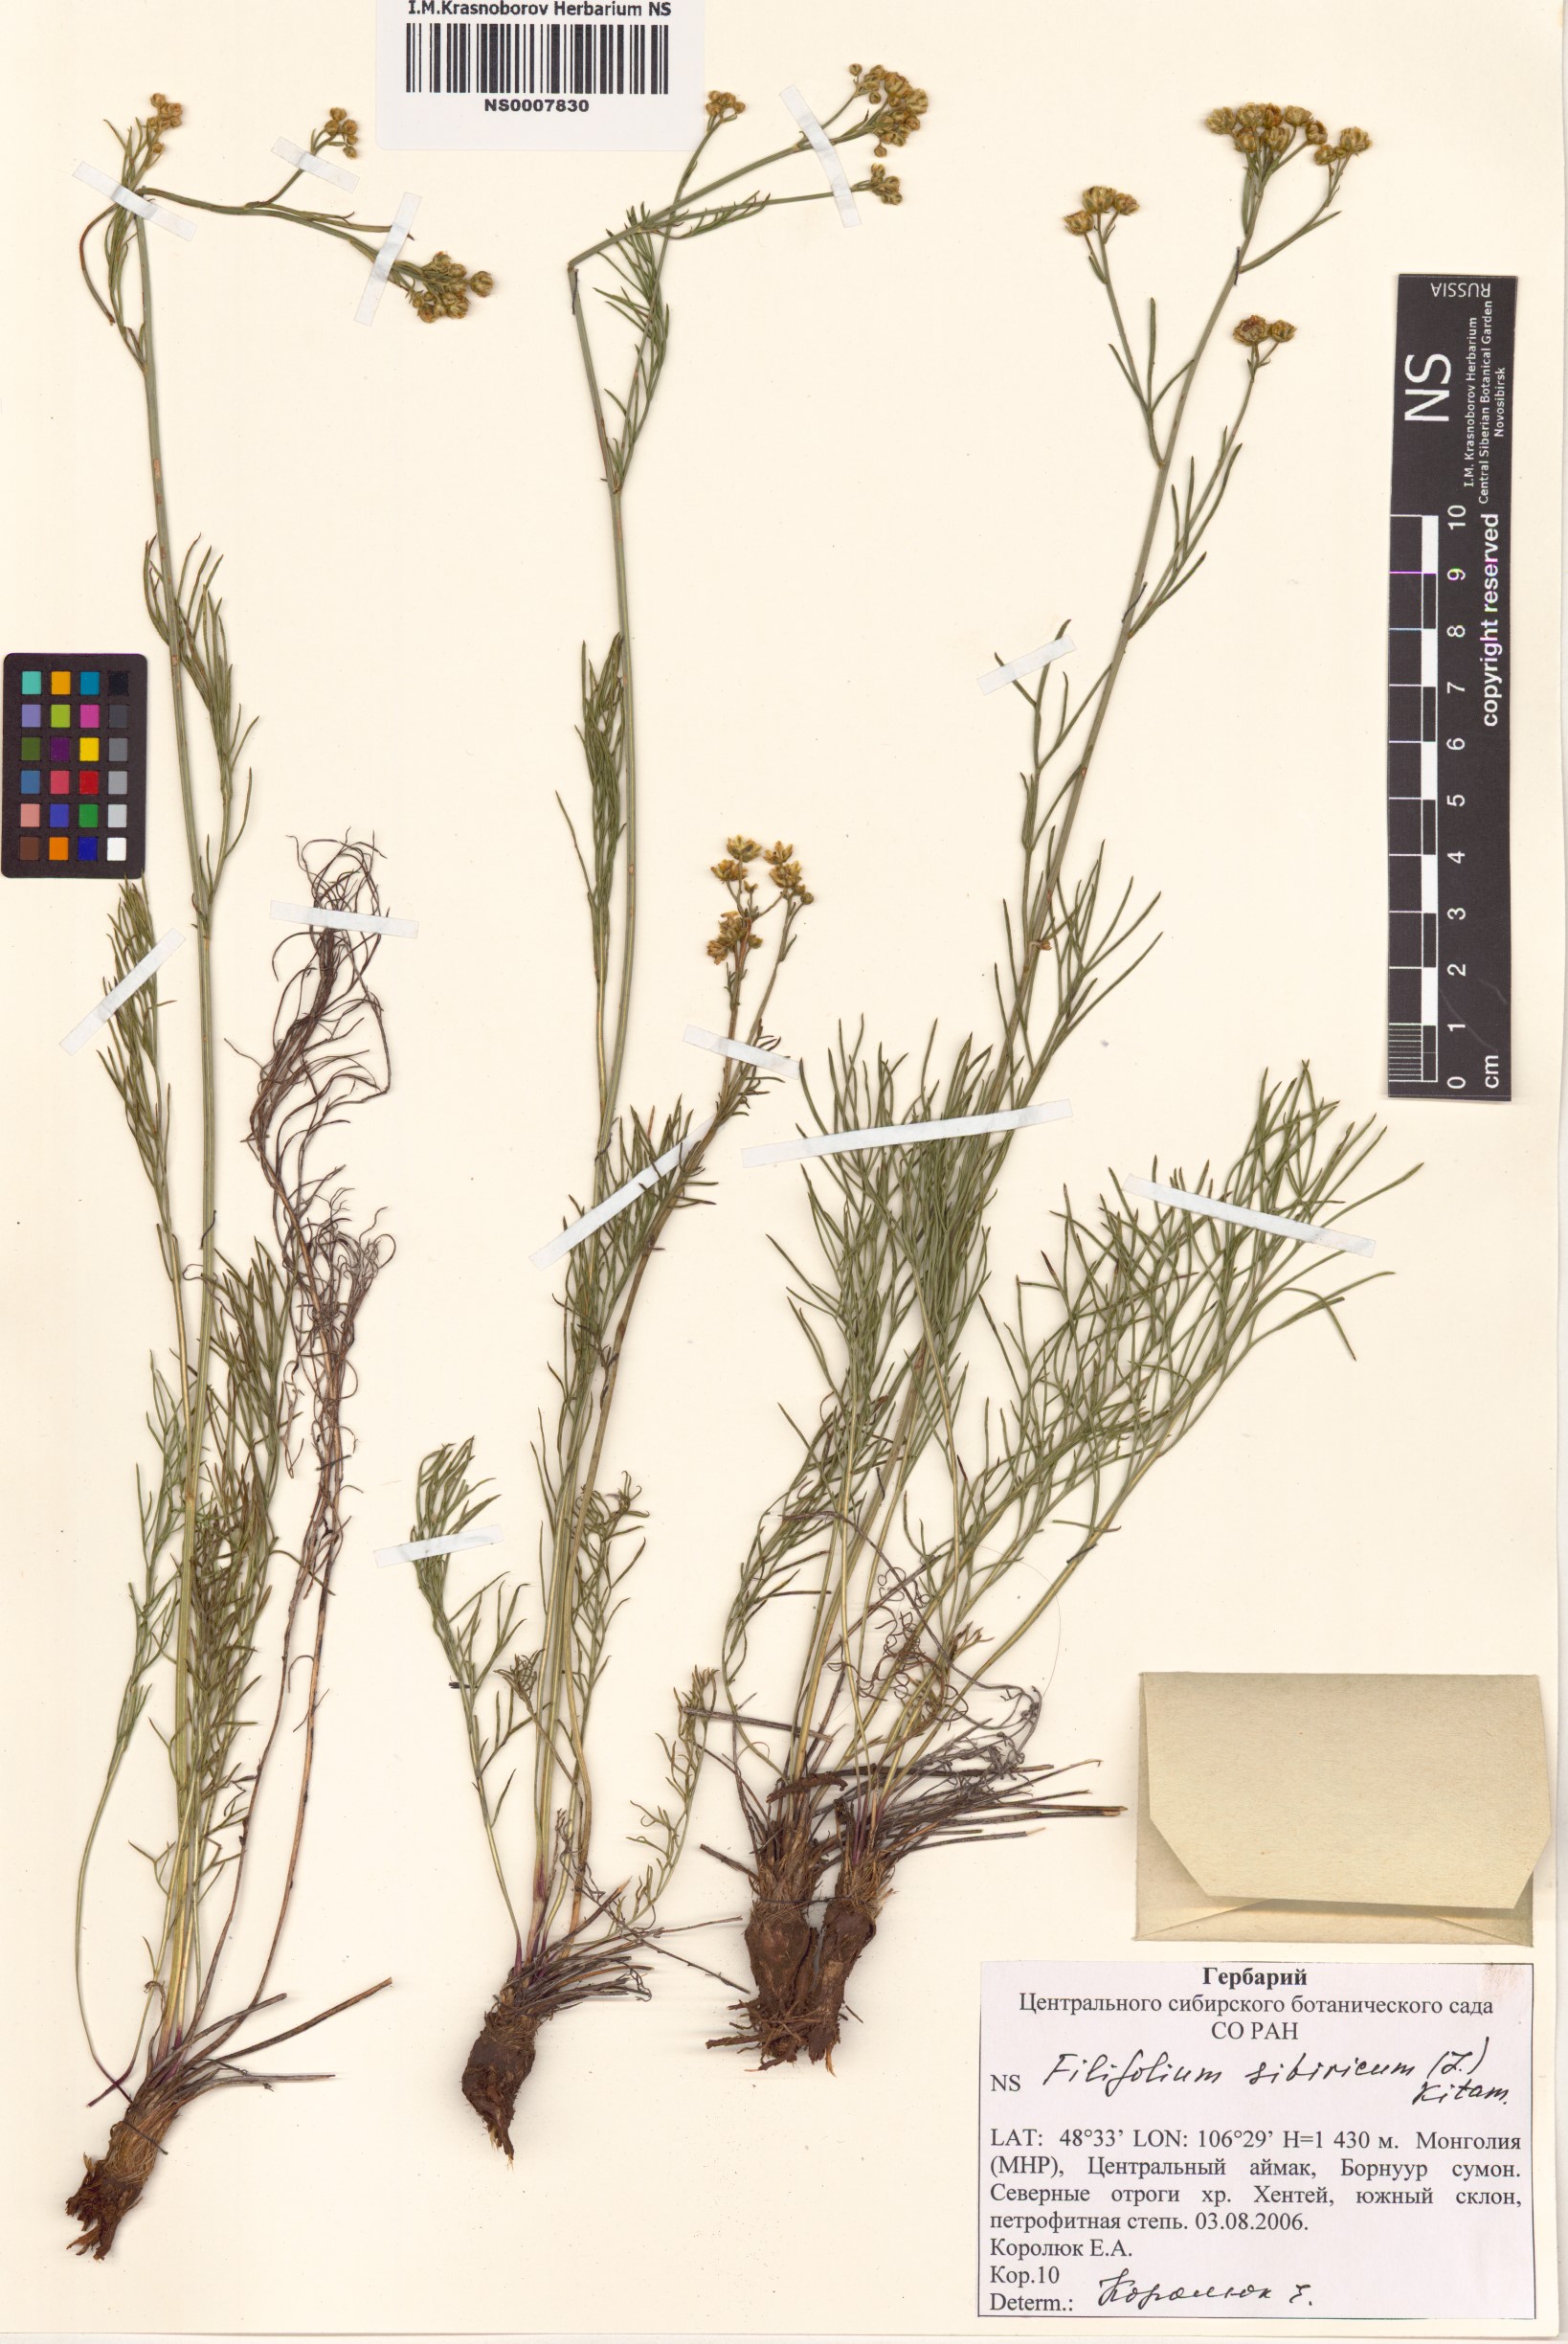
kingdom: Plantae
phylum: Tracheophyta
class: Magnoliopsida
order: Asterales
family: Asteraceae
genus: Filifolium
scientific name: Filifolium sibiricum
